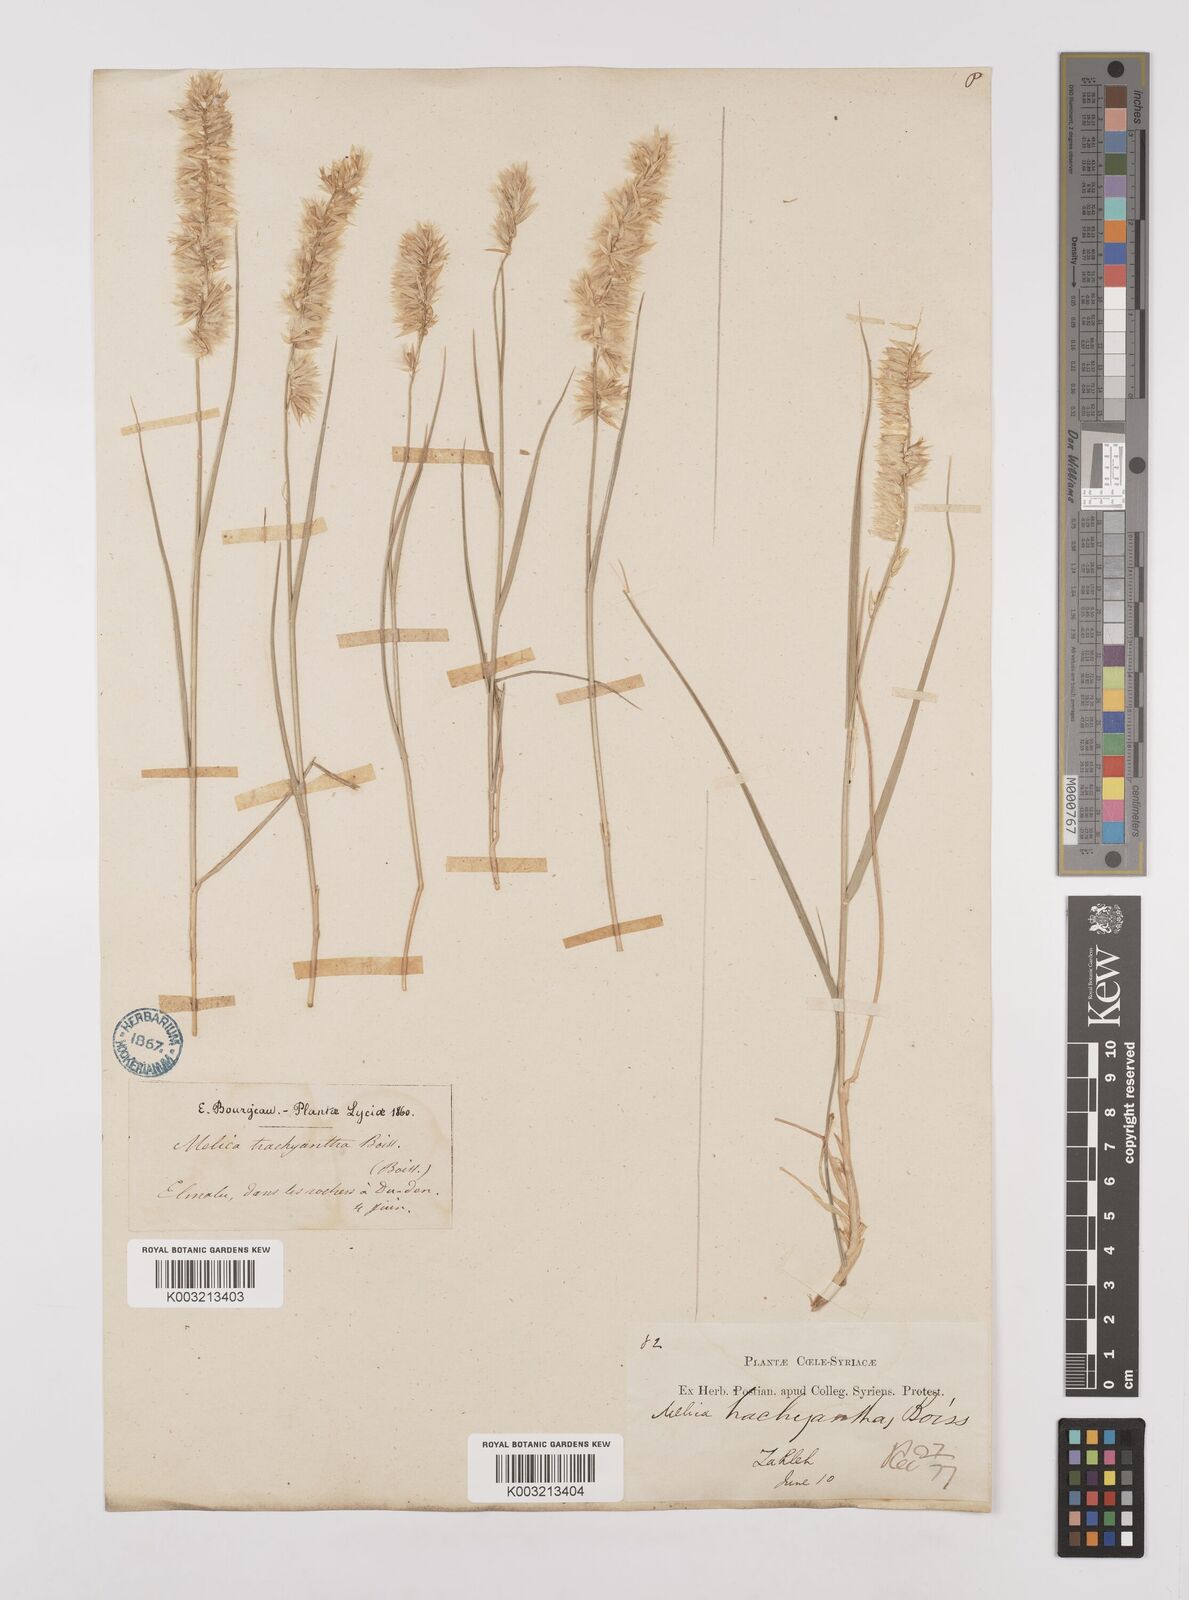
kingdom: Plantae
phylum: Tracheophyta
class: Liliopsida
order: Poales
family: Poaceae
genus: Melica
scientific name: Melica persica
